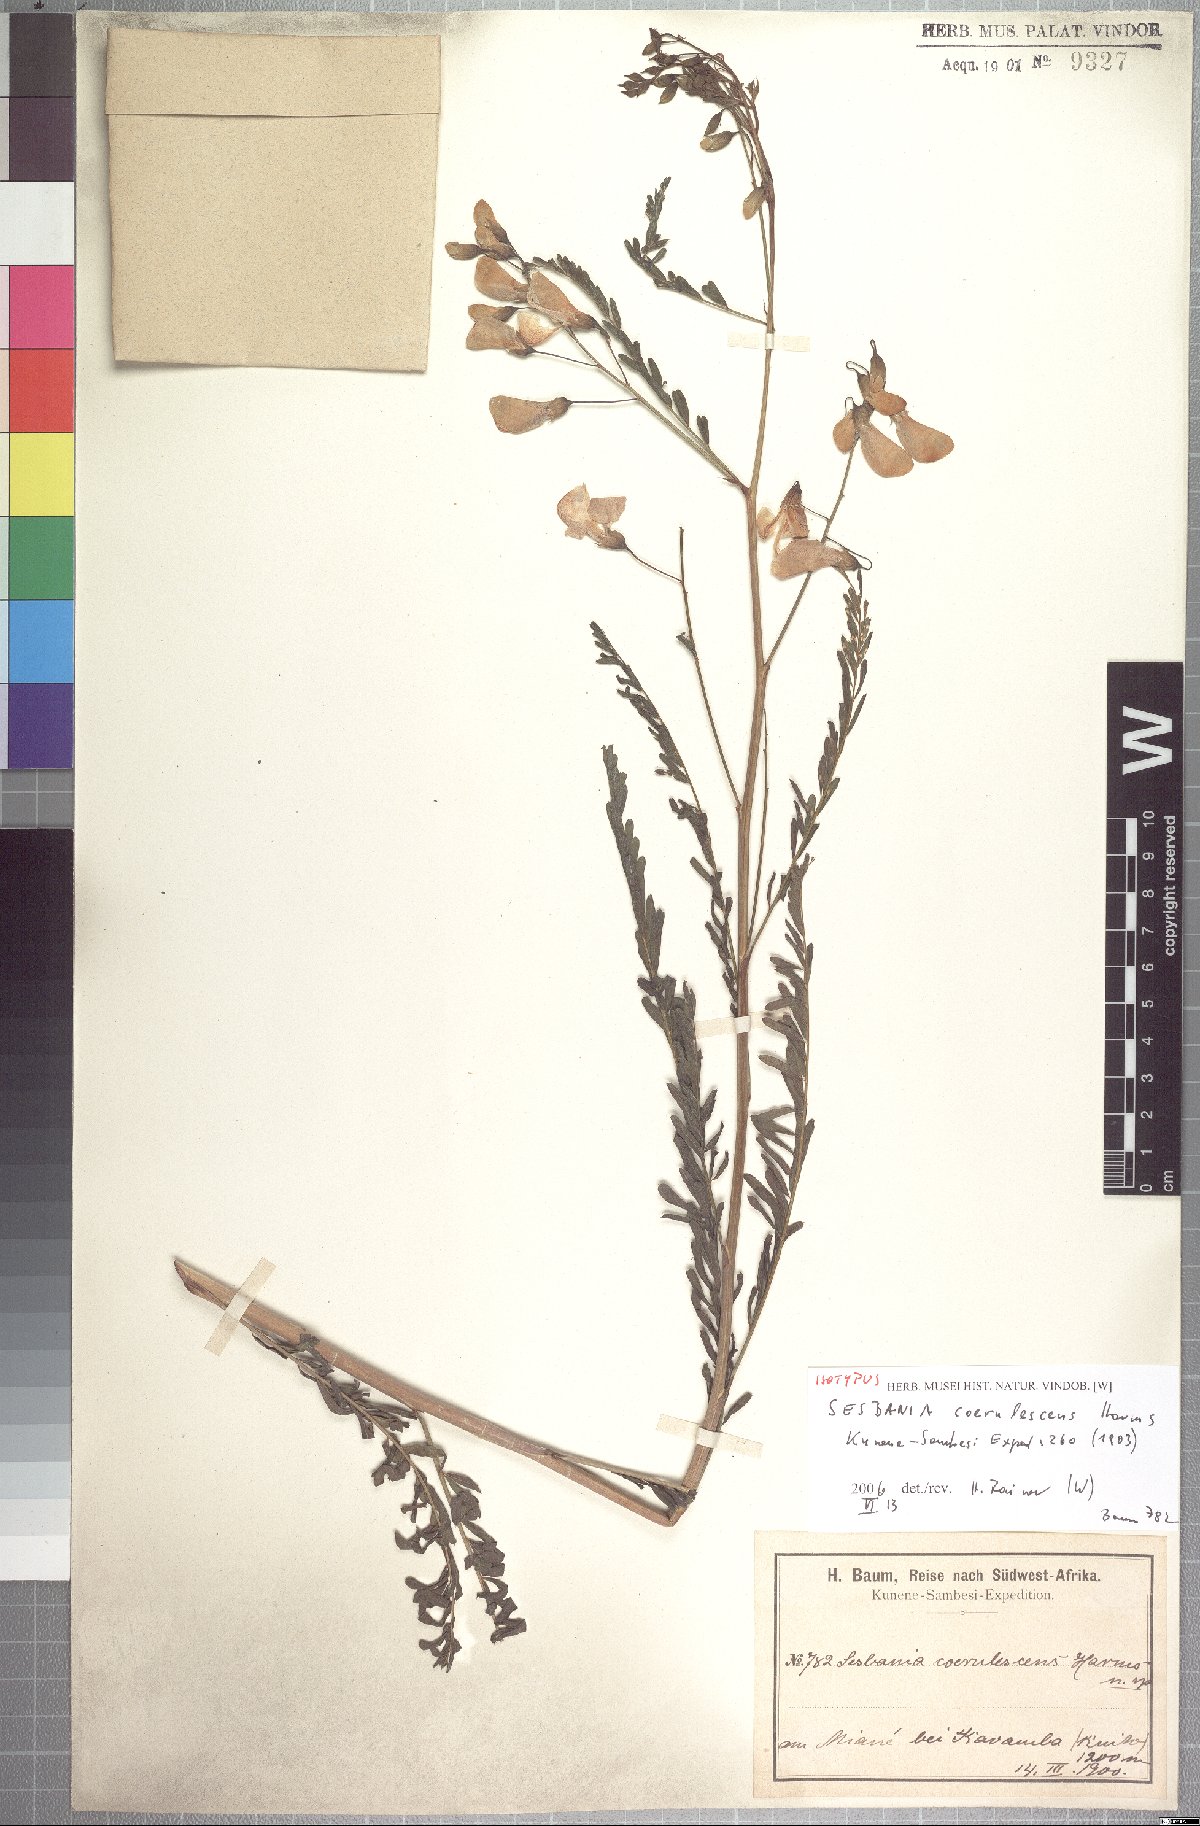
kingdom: Plantae
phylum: Tracheophyta
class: Magnoliopsida
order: Fabales
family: Fabaceae
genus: Sesbania
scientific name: Sesbania coerulescens
